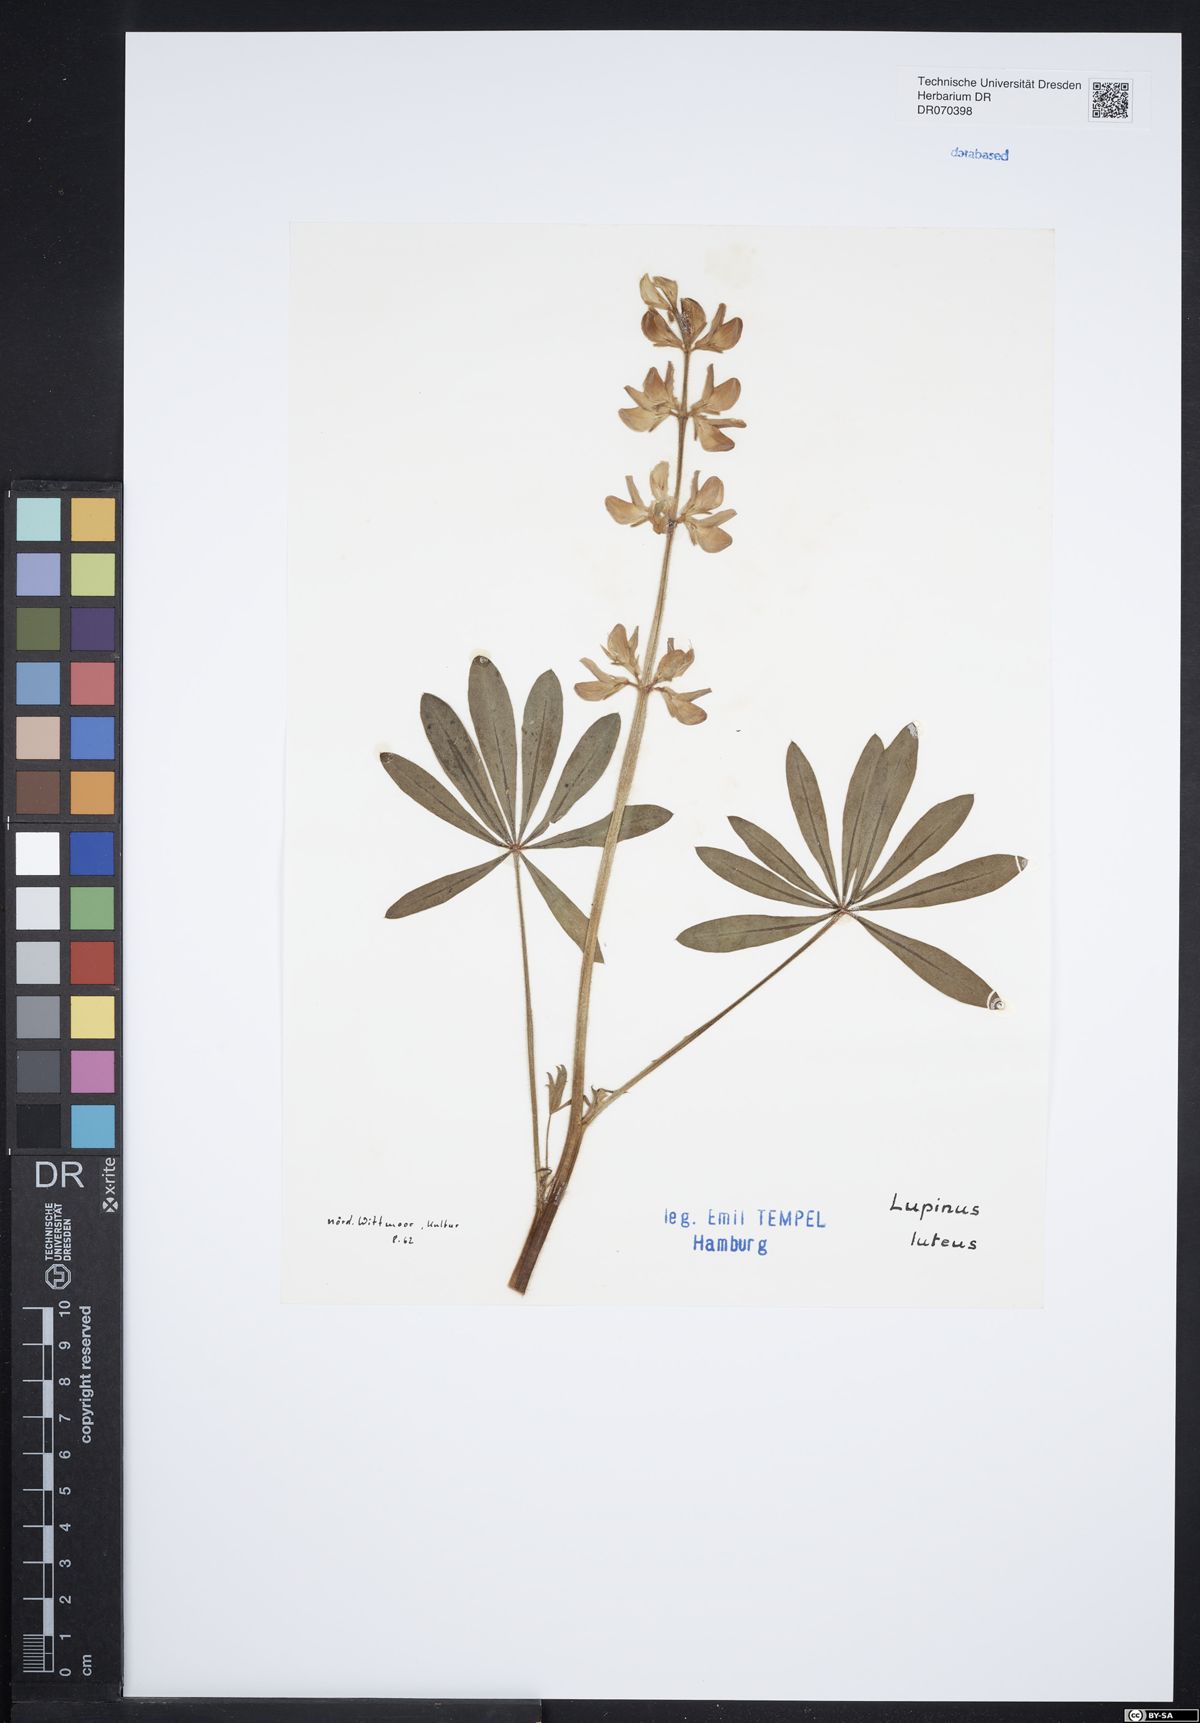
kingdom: Plantae
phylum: Tracheophyta
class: Magnoliopsida
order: Fabales
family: Fabaceae
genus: Lupinus
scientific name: Lupinus luteus
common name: European yellow lupine
